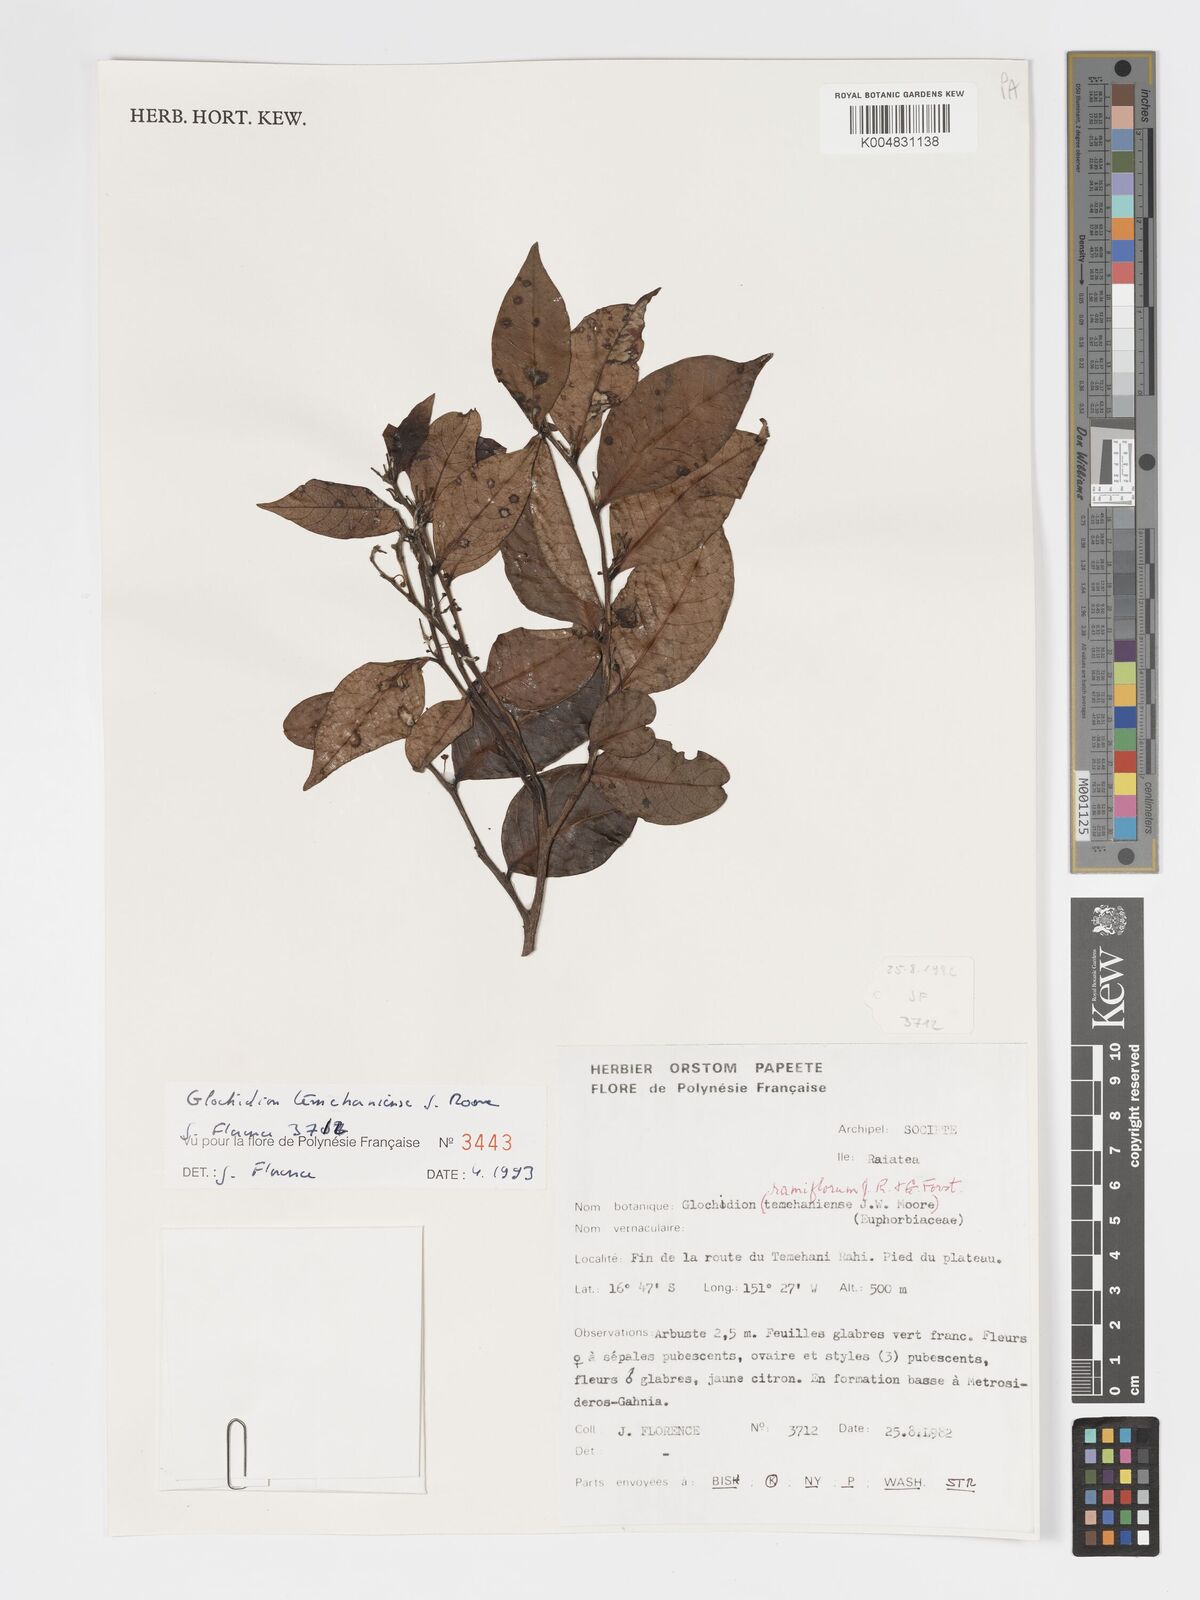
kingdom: Plantae
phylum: Tracheophyta
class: Magnoliopsida
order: Malpighiales
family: Phyllanthaceae
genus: Glochidion
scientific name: Glochidion temehaniense
